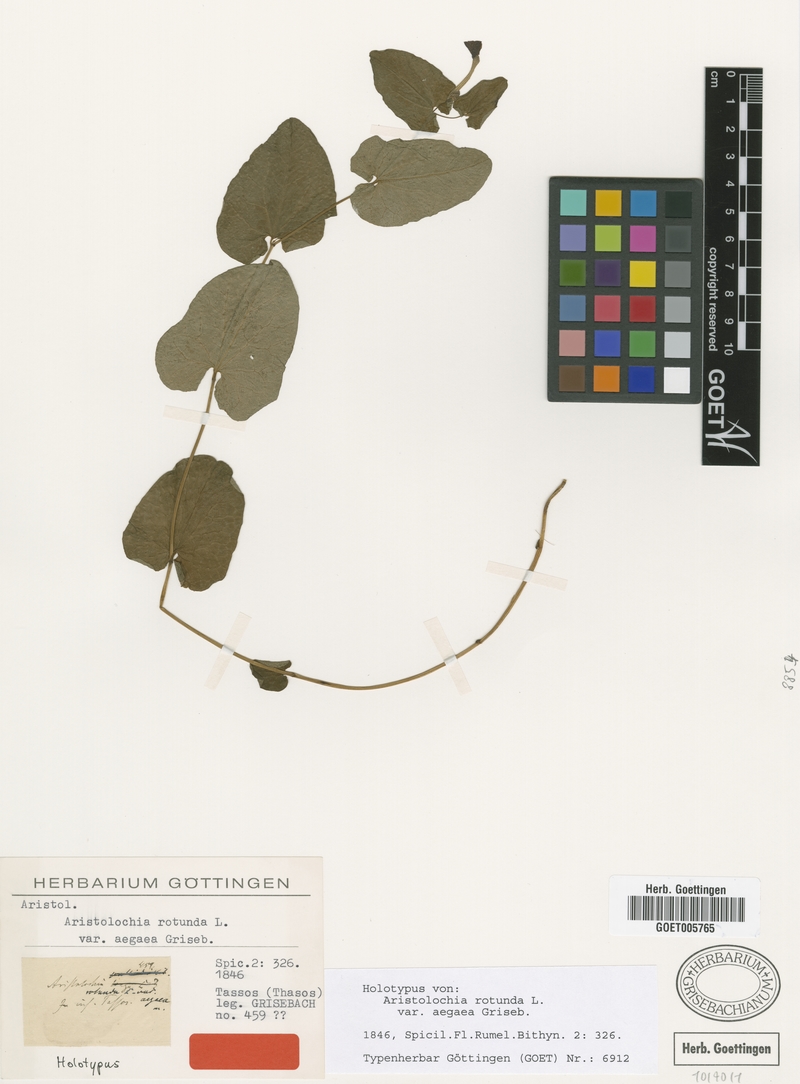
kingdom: Plantae
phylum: Tracheophyta
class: Magnoliopsida
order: Piperales
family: Aristolochiaceae
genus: Aristolochia
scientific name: Aristolochia rotunda
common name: Smearwort
